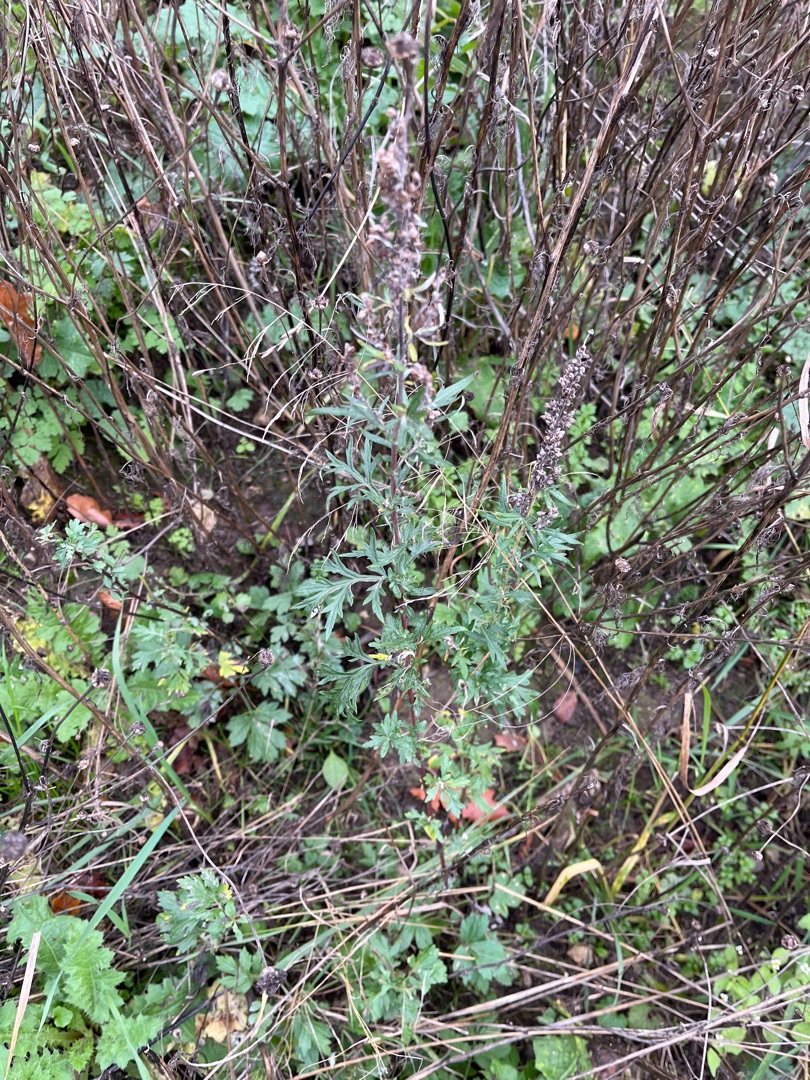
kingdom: Plantae
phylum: Tracheophyta
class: Magnoliopsida
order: Asterales
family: Asteraceae
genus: Artemisia
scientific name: Artemisia vulgaris
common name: Grå-bynke
